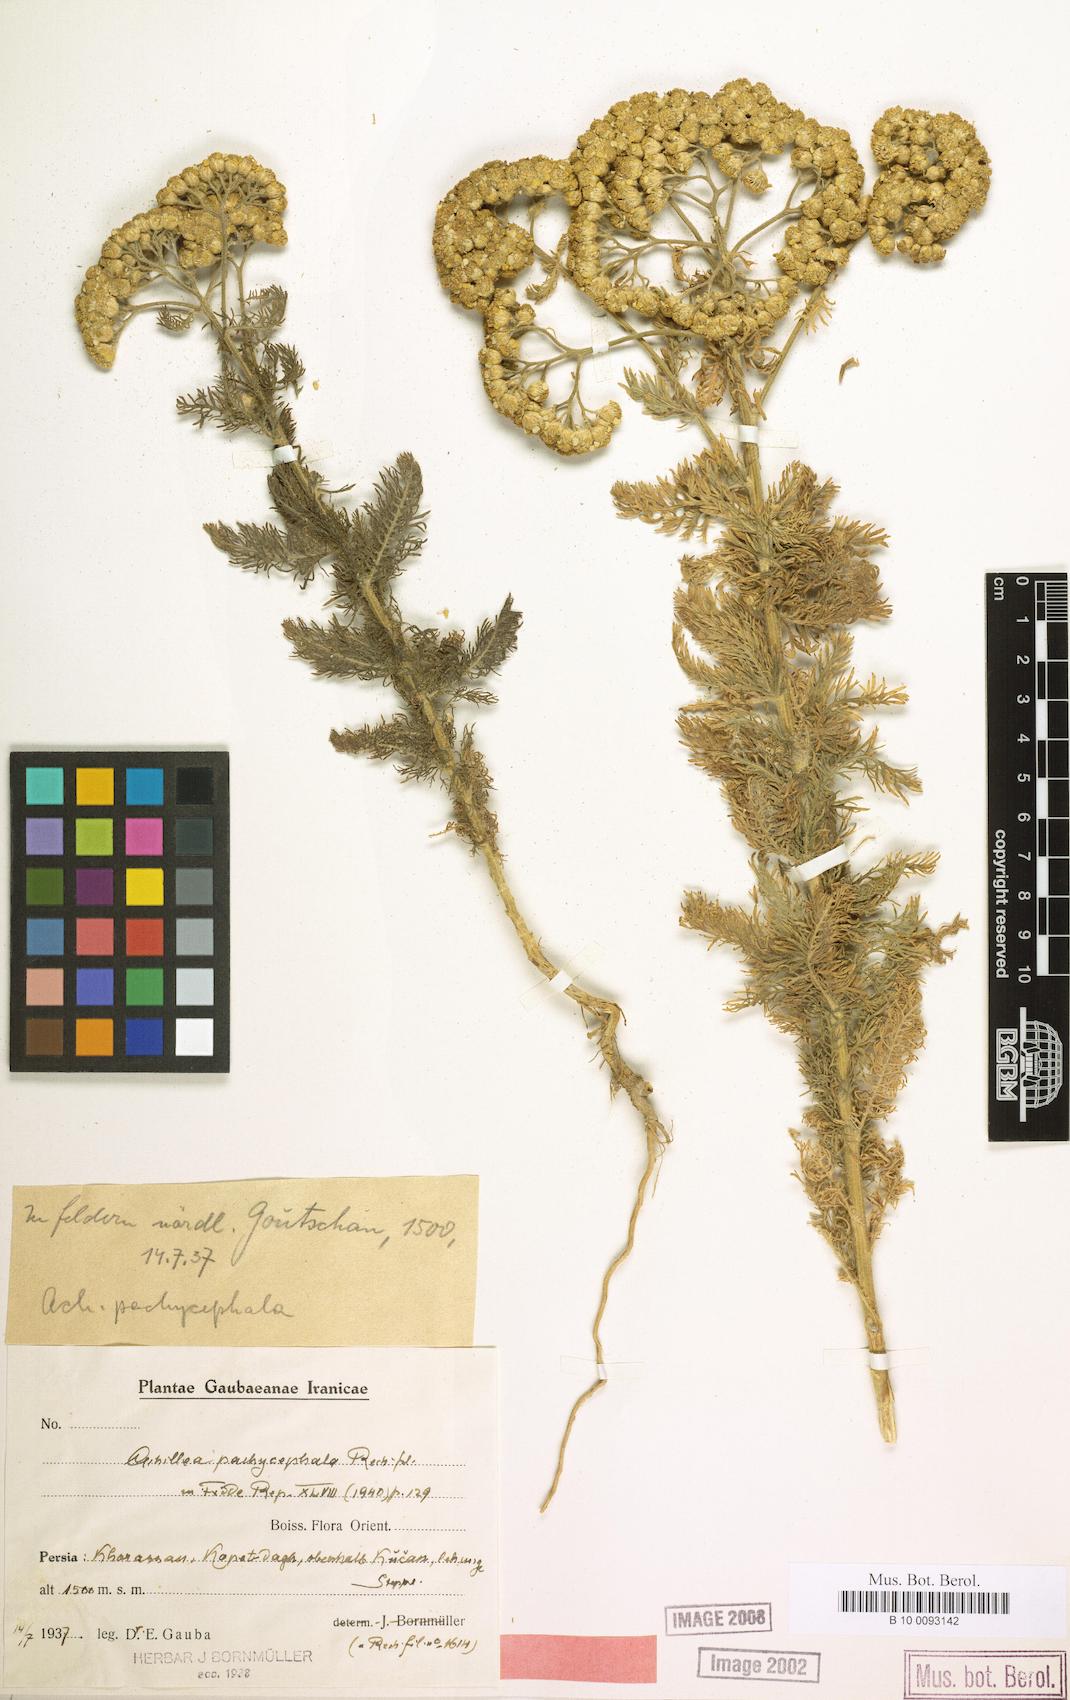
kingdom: Plantae
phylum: Tracheophyta
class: Magnoliopsida
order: Asterales
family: Asteraceae
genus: Achillea
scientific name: Achillea pachycephala
